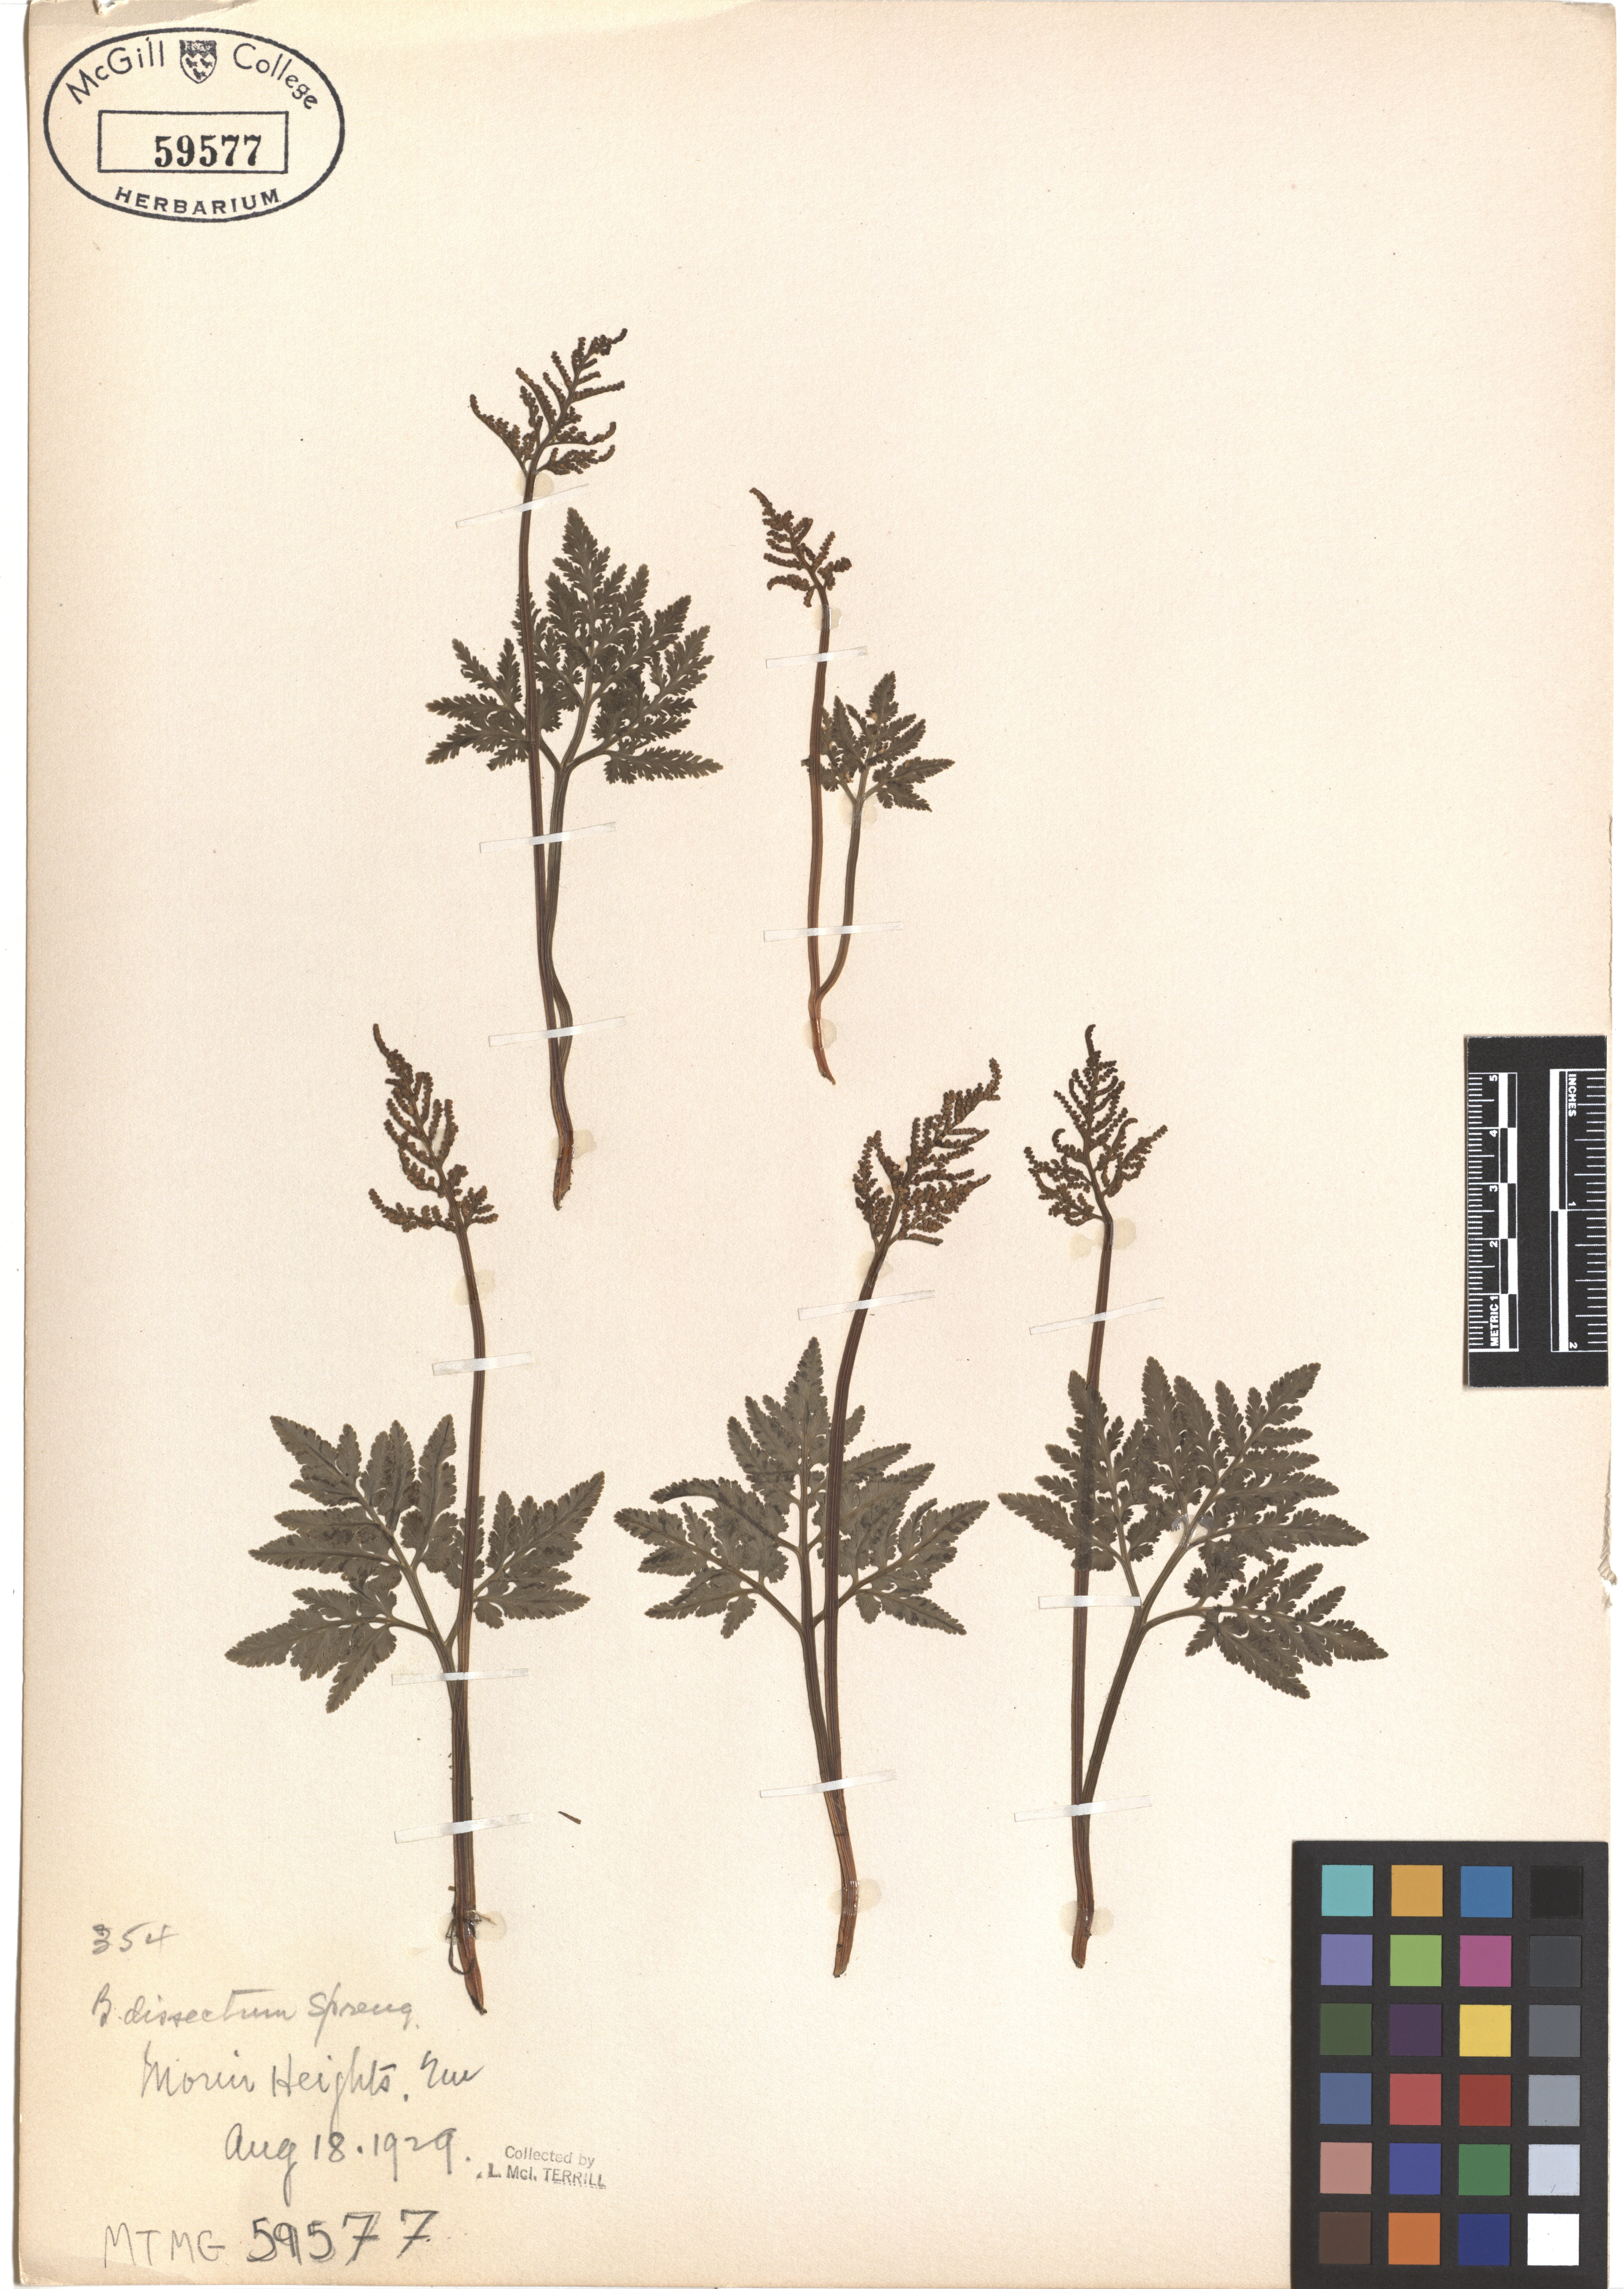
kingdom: Plantae
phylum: Tracheophyta
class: Polypodiopsida
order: Ophioglossales
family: Ophioglossaceae
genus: Sceptridium
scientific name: Sceptridium dissectum
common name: Cut-leaved grapefern
